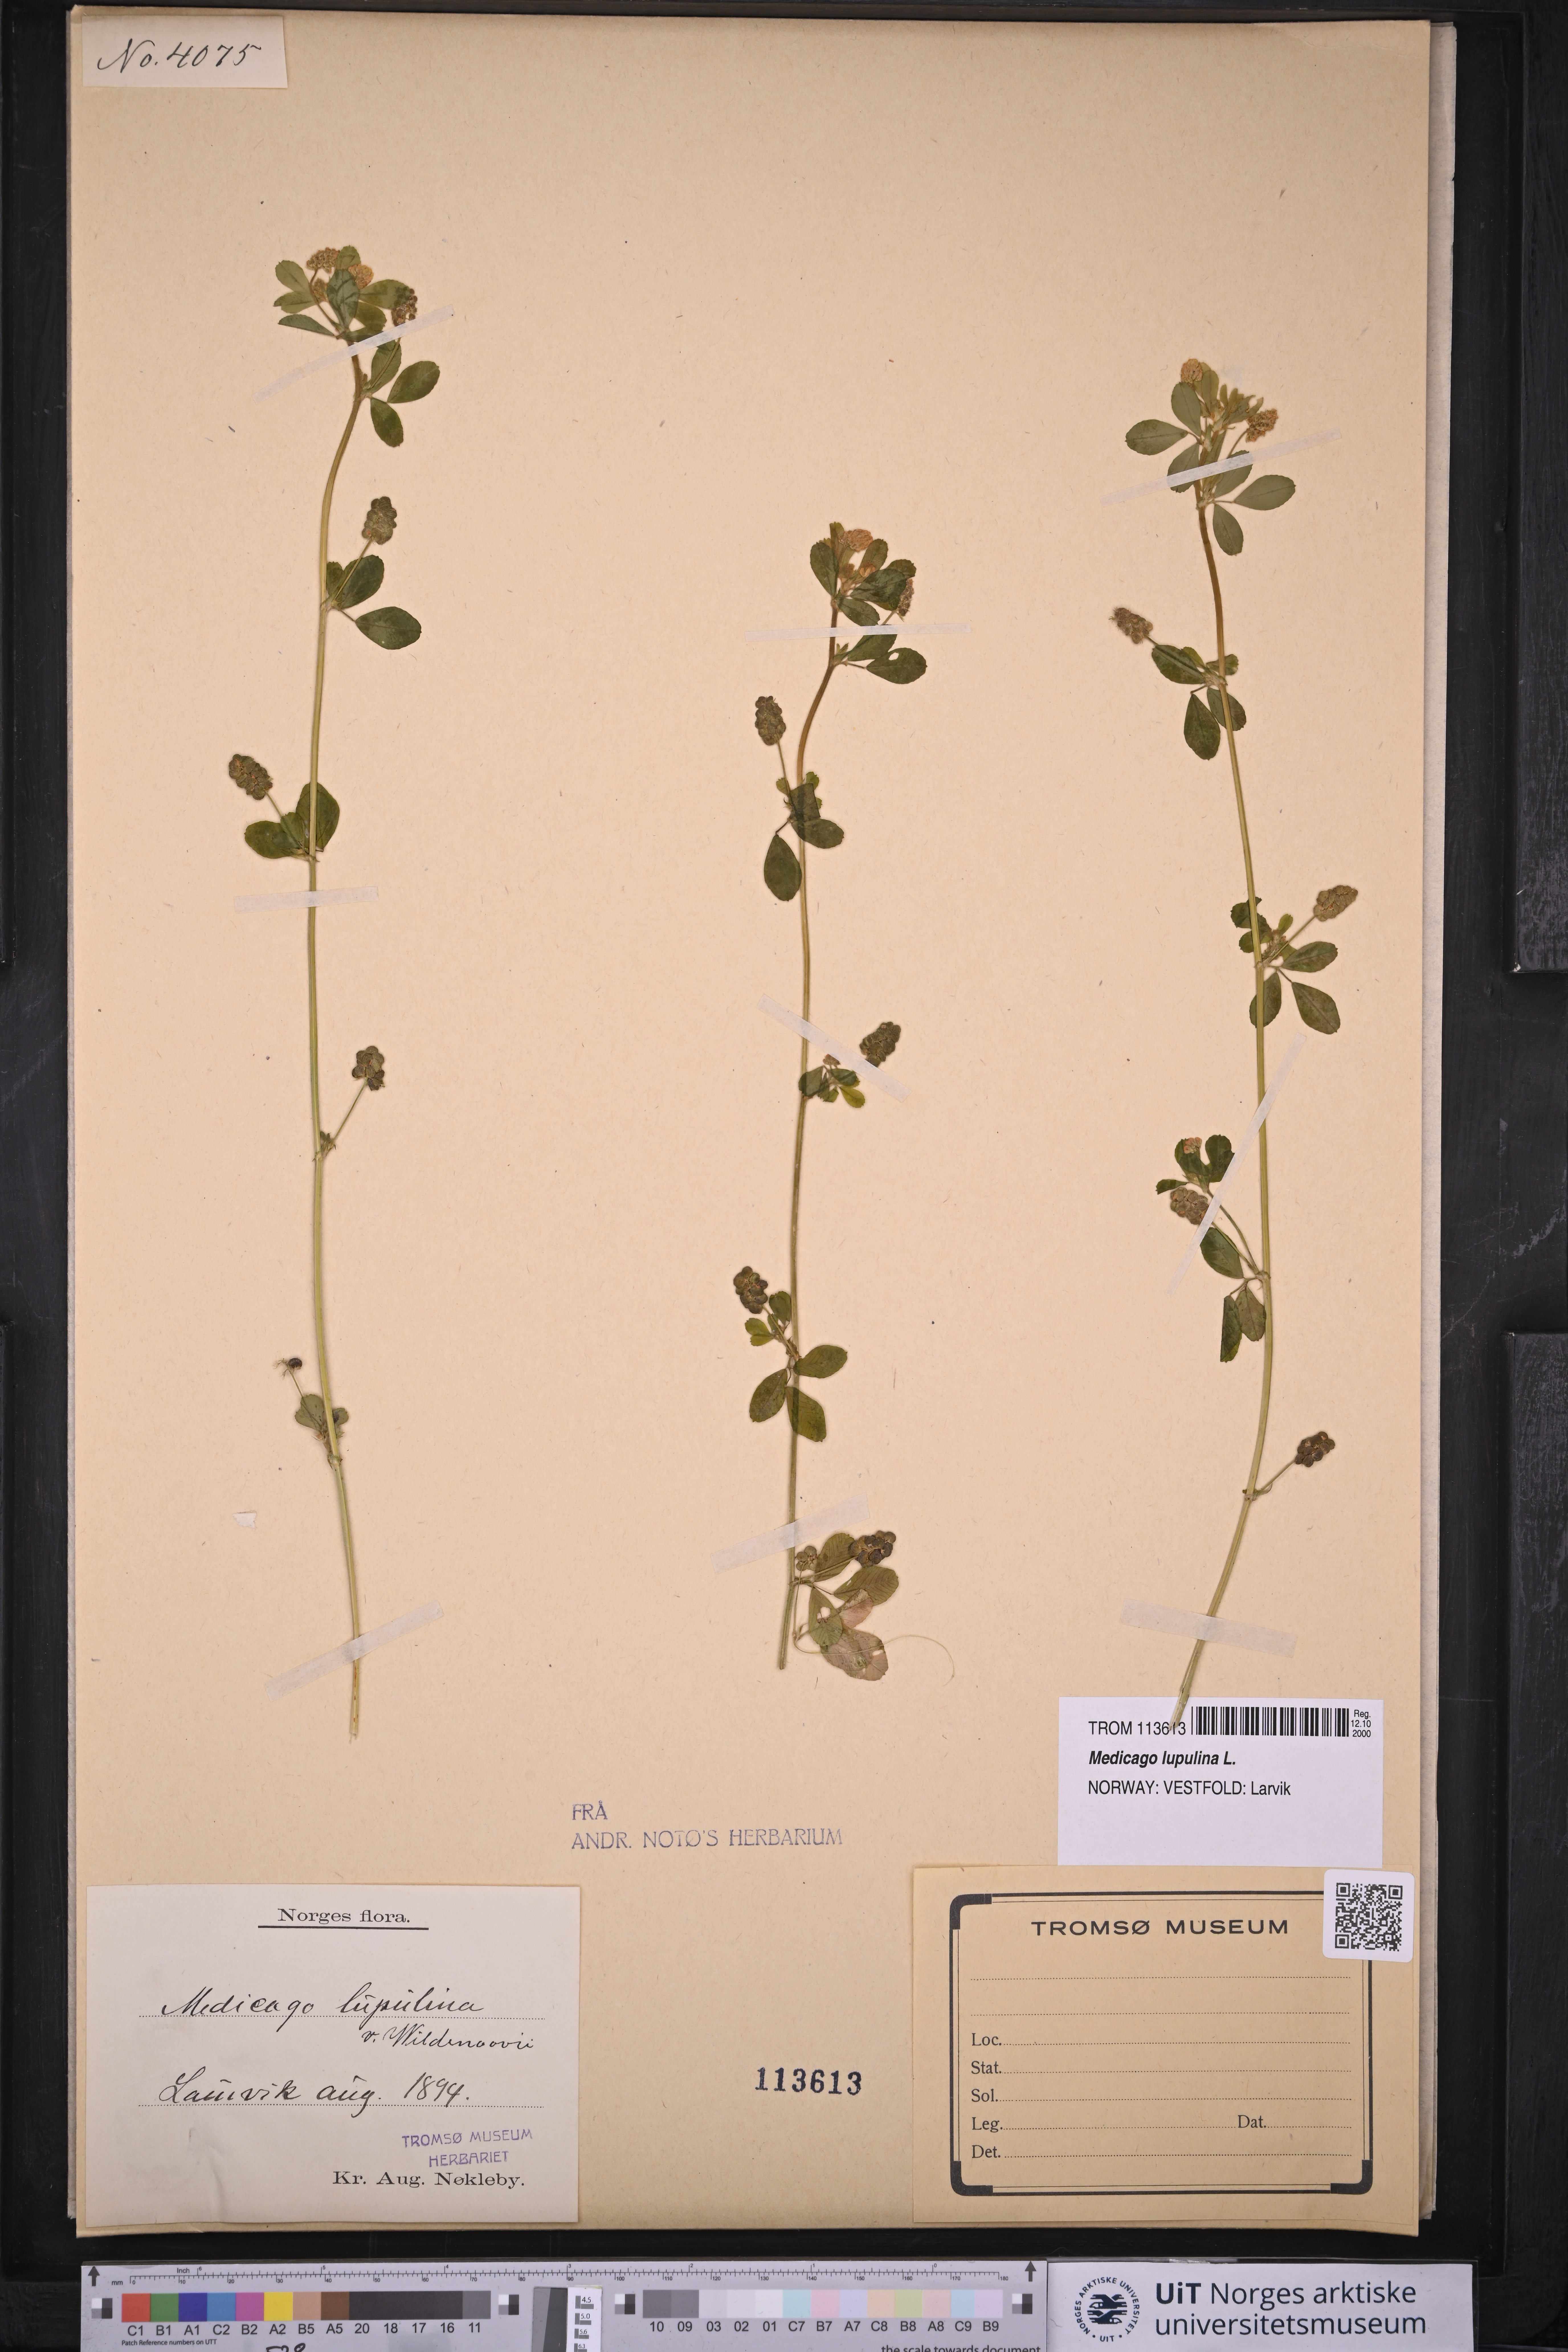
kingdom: Plantae
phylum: Tracheophyta
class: Magnoliopsida
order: Fabales
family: Fabaceae
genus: Medicago
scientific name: Medicago lupulina
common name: Black medick
